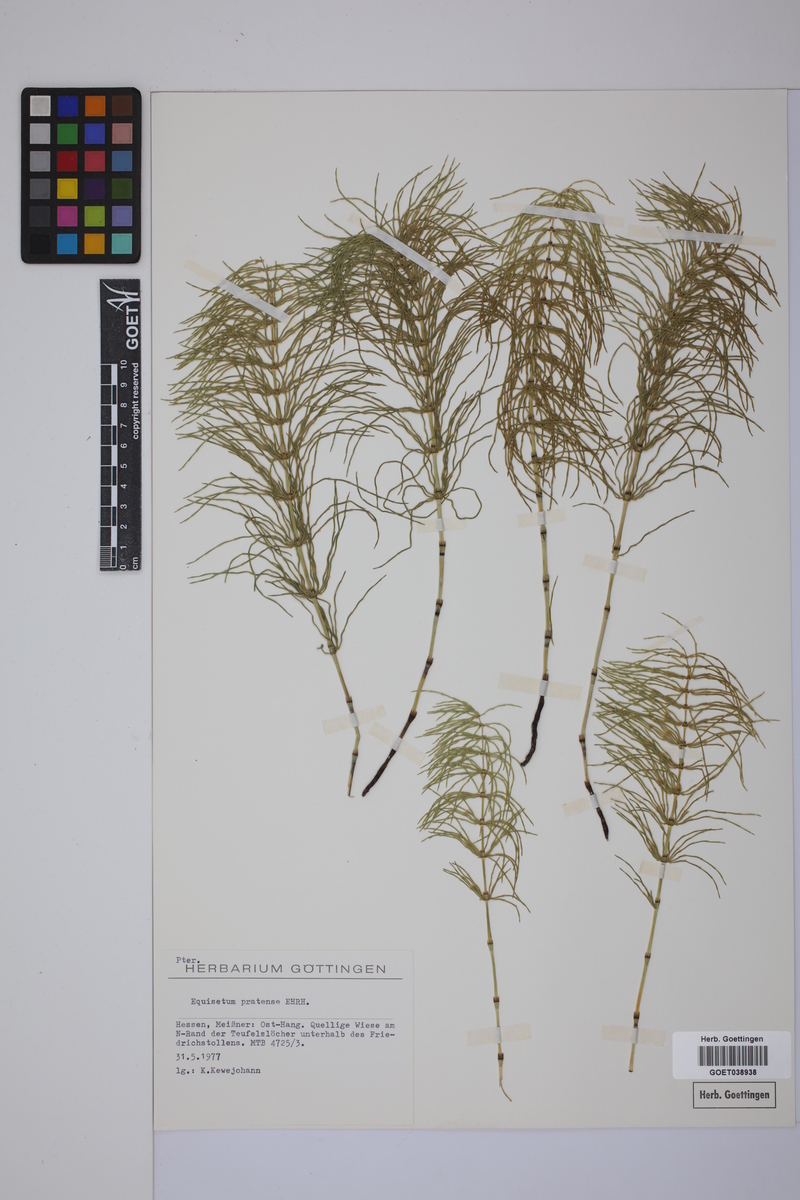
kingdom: Plantae
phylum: Tracheophyta
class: Polypodiopsida
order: Equisetales
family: Equisetaceae
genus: Equisetum
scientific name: Equisetum pratense
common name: Meadow horsetail
